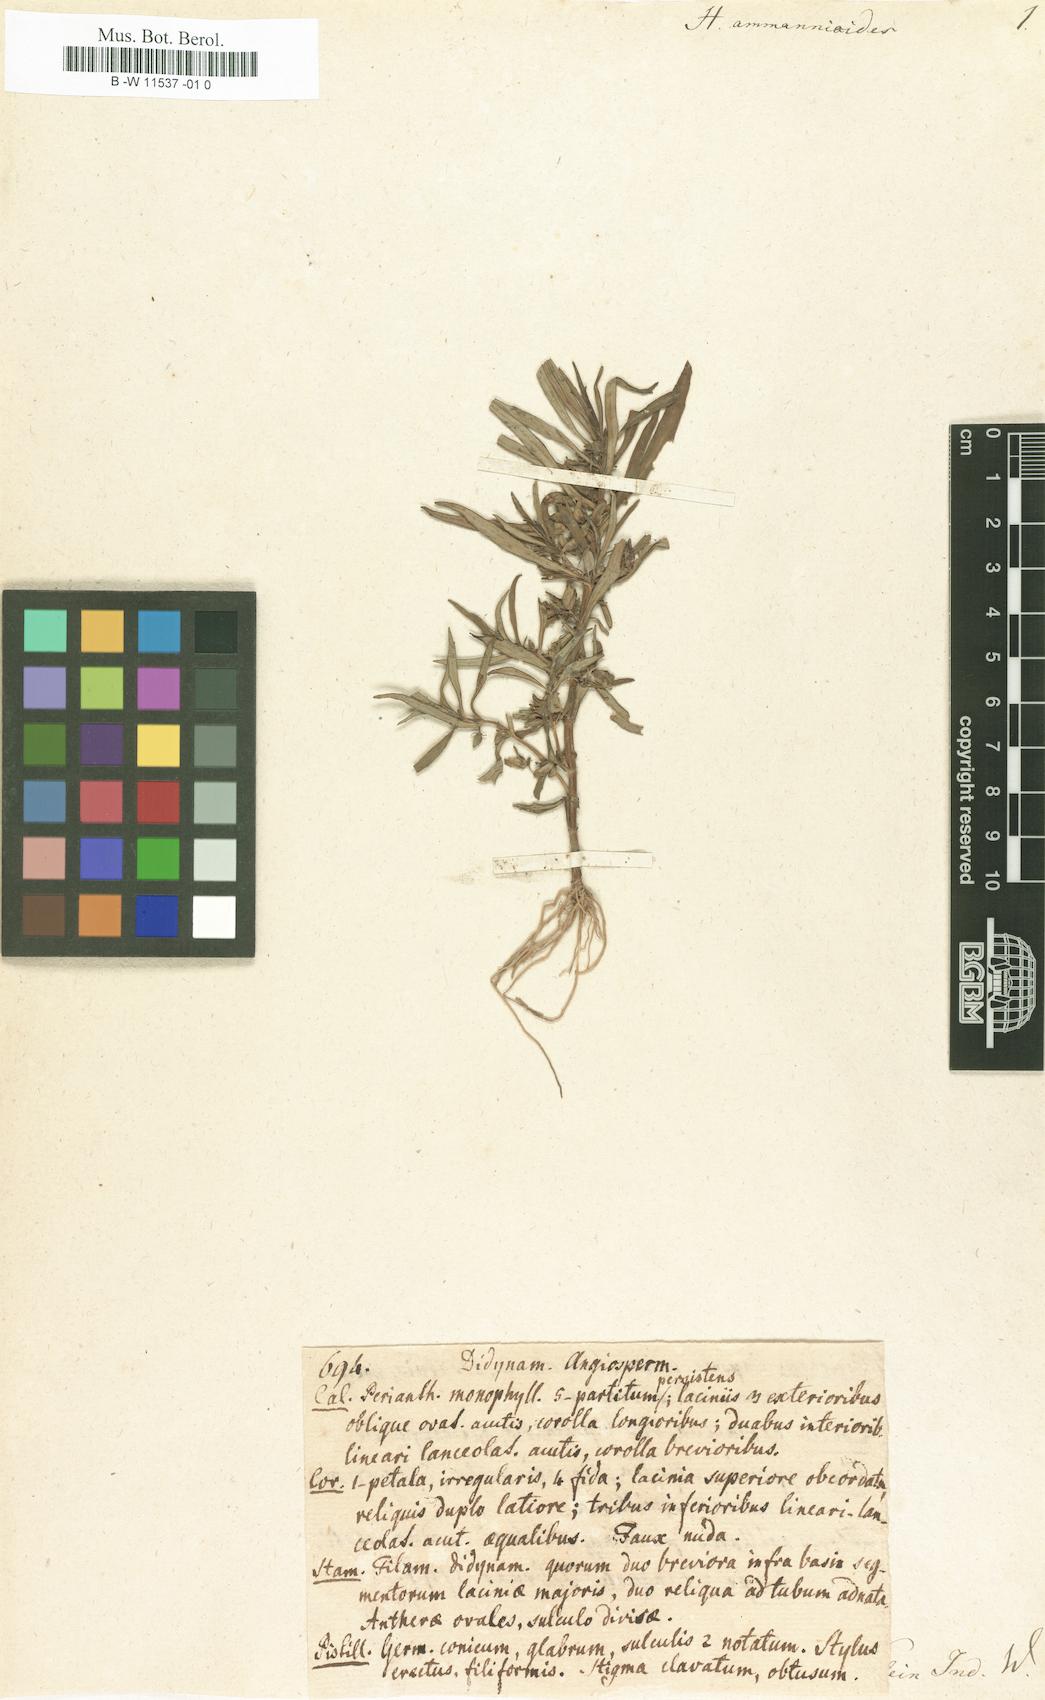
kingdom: Plantae
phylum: Tracheophyta
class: Magnoliopsida
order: Lamiales
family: Scrophulariaceae
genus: Herpestes
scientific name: Herpestes
